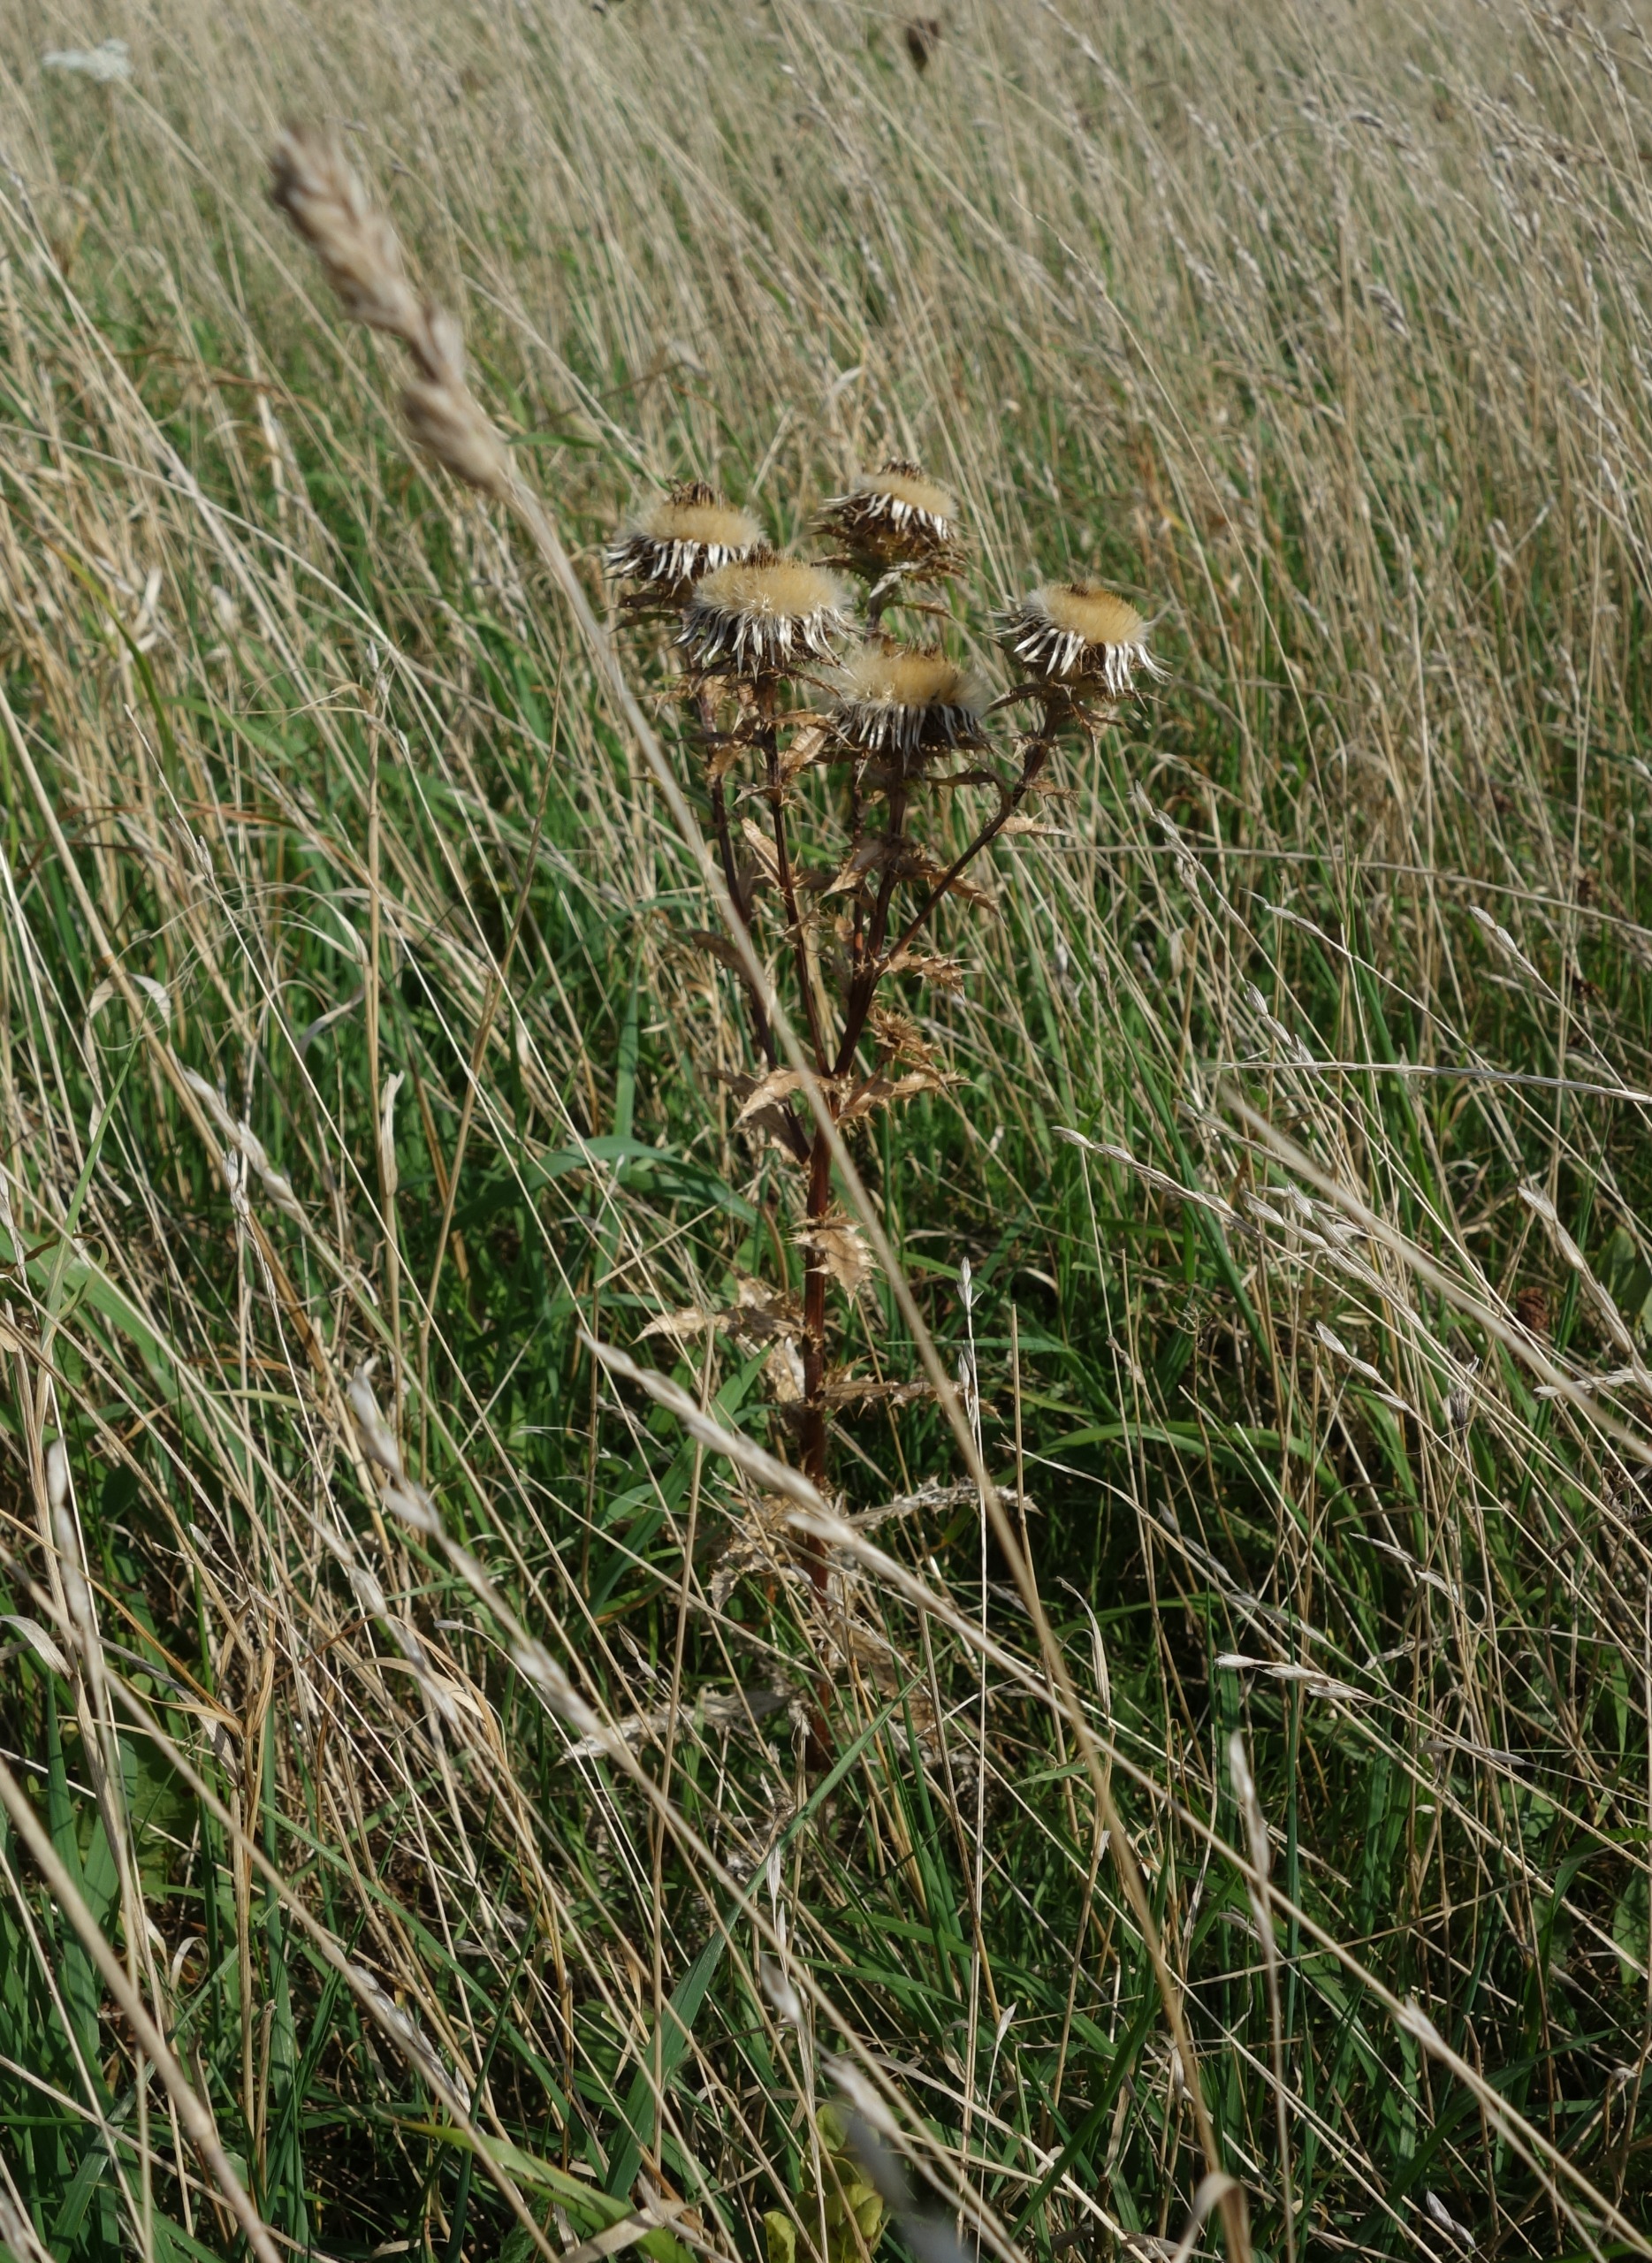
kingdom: Plantae
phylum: Tracheophyta
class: Magnoliopsida
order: Asterales
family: Asteraceae
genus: Carlina
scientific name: Carlina vulgaris
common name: Bakketidsel
